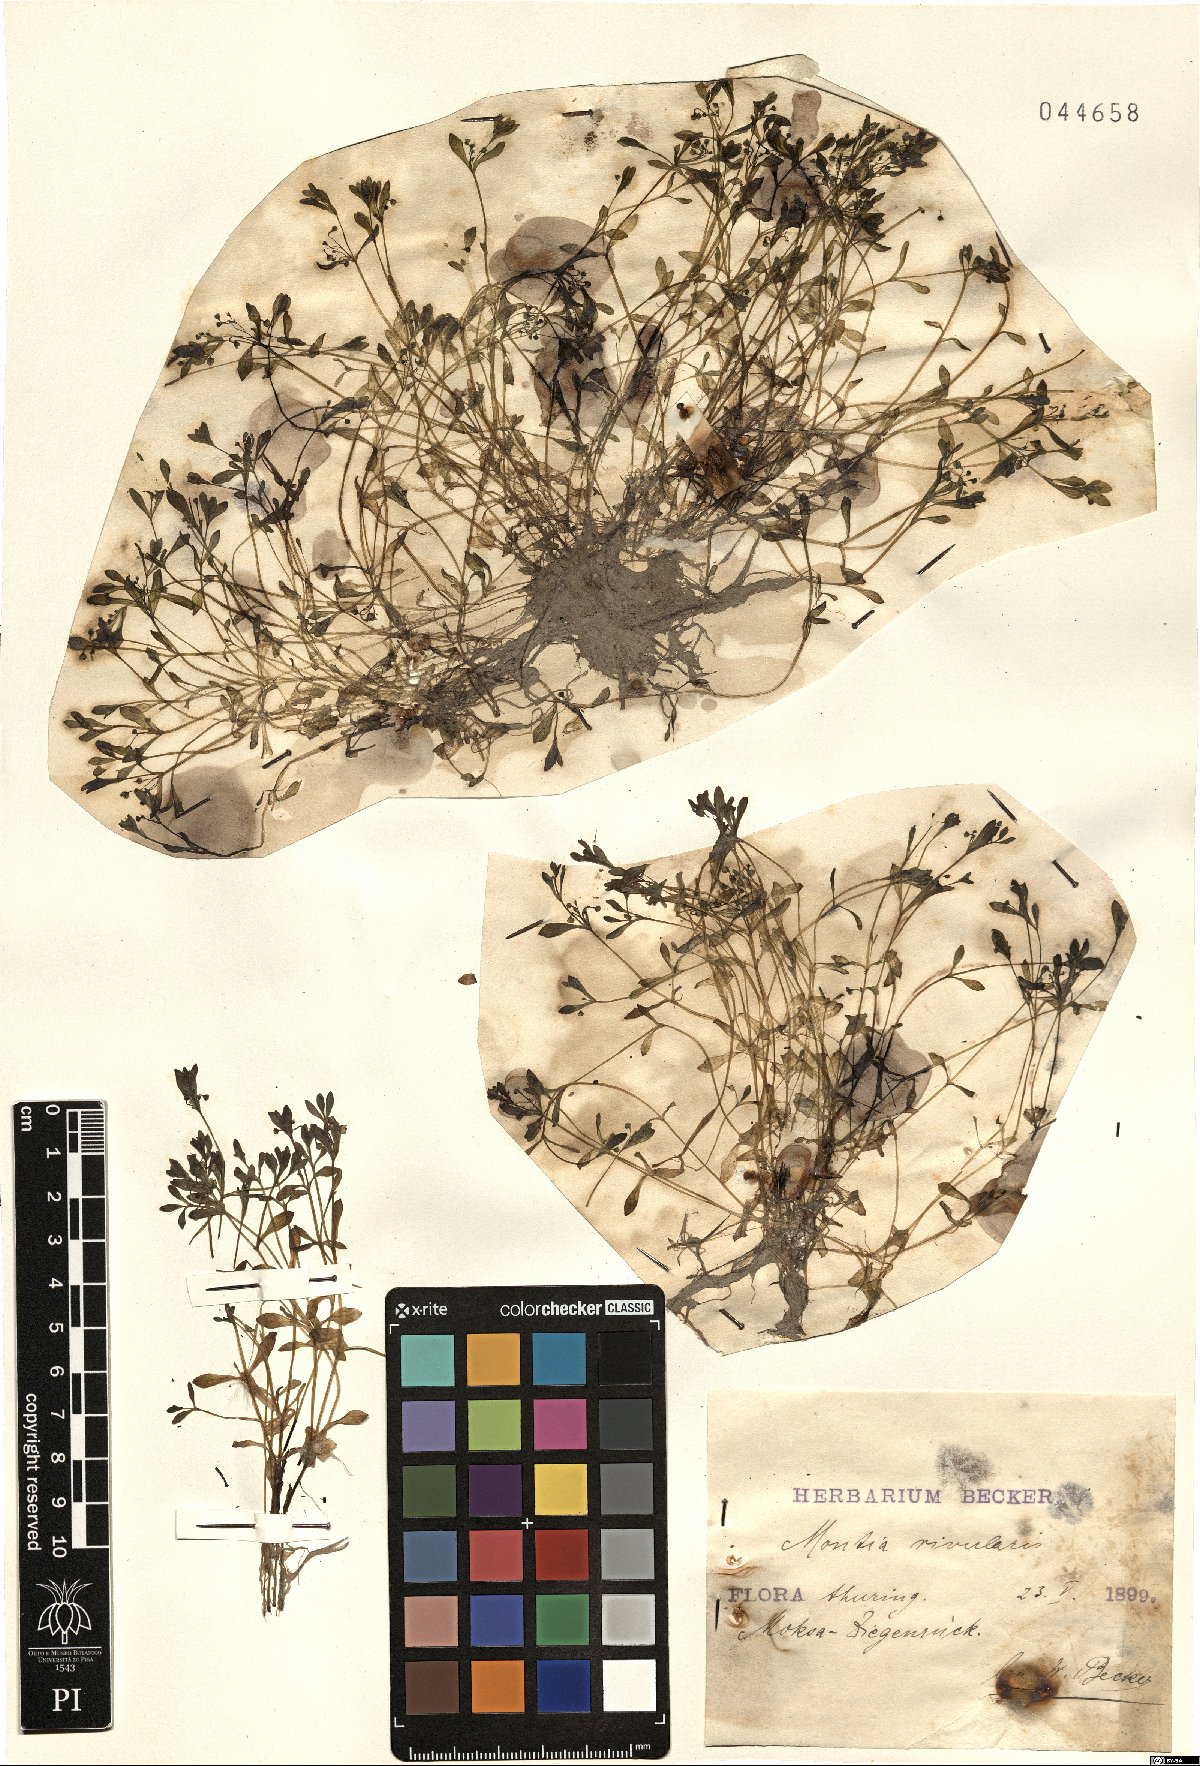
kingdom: Plantae
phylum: Tracheophyta
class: Magnoliopsida
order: Caryophyllales
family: Montiaceae
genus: Montia
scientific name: Montia fontana
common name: Blinks
